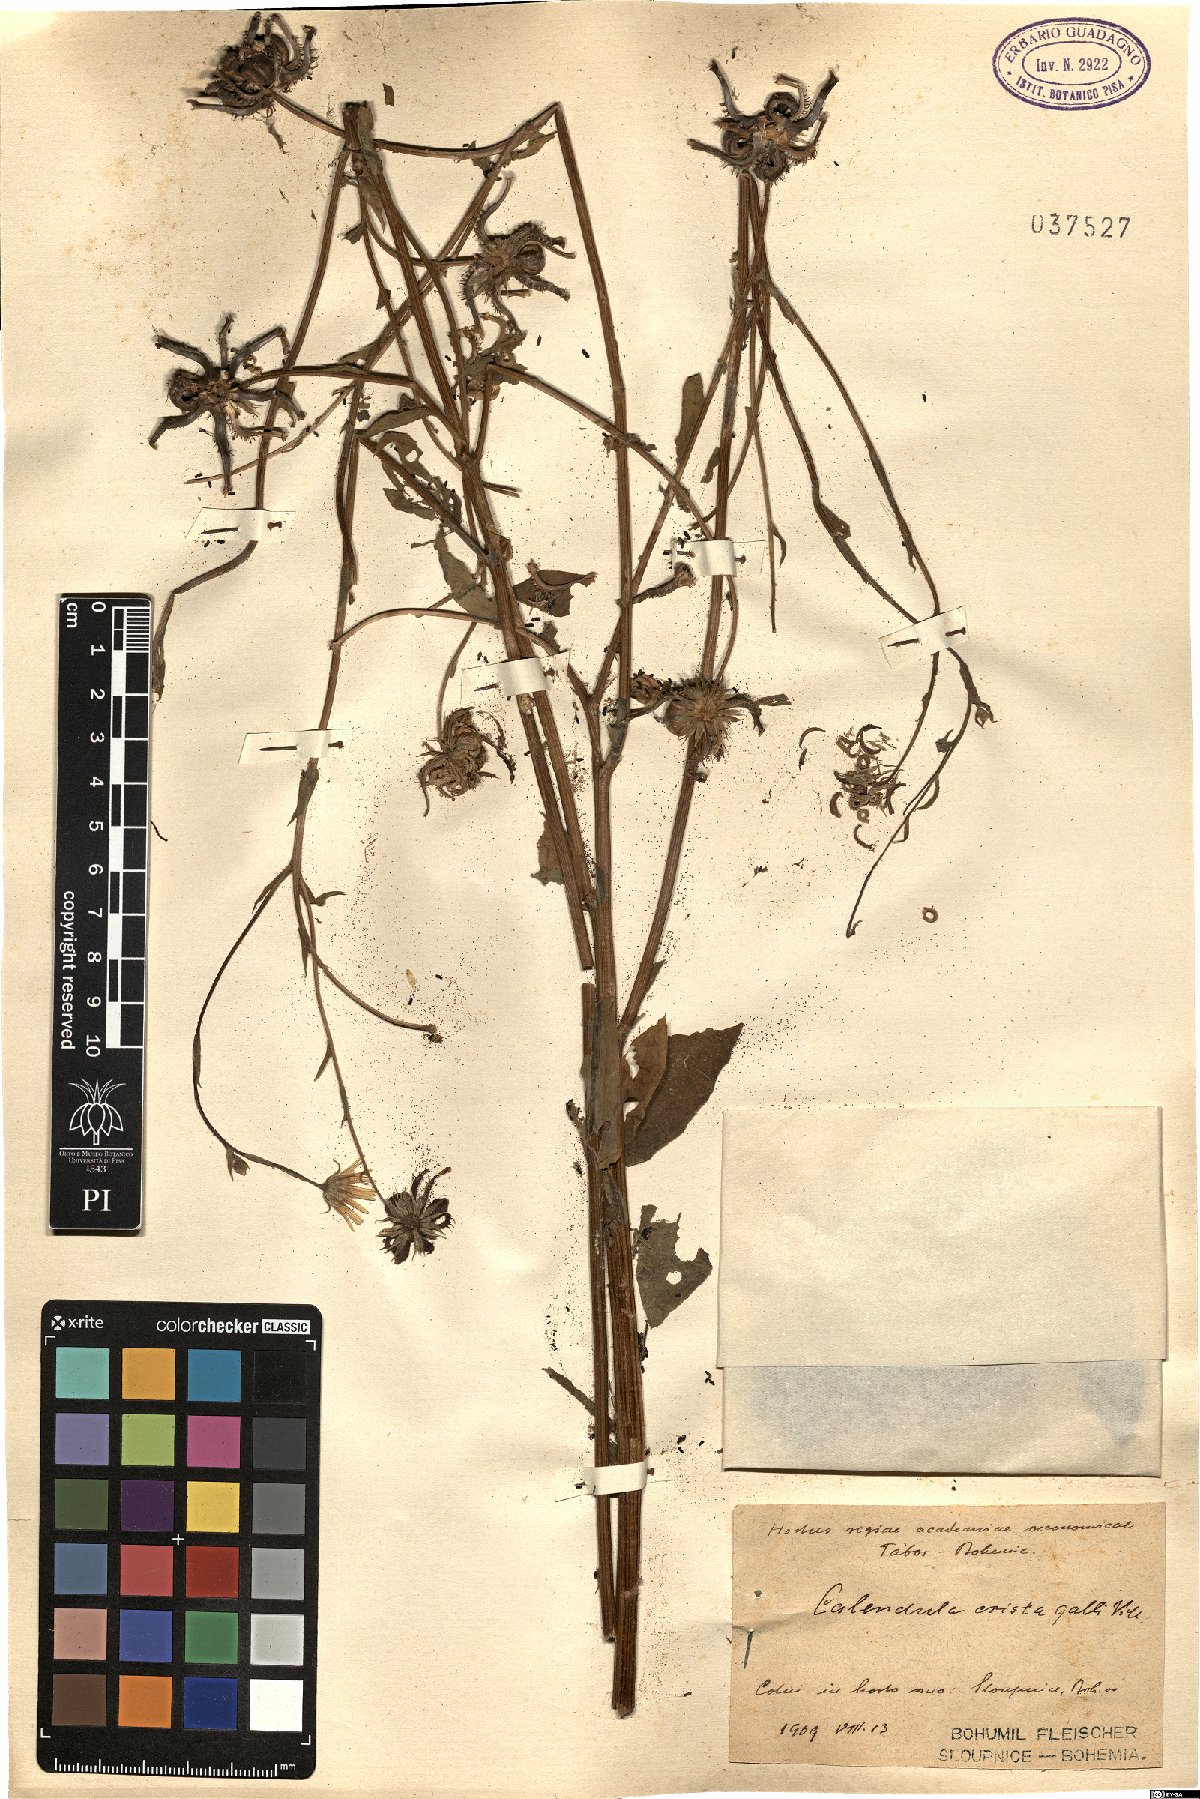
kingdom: Plantae
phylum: Tracheophyta
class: Magnoliopsida
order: Asterales
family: Asteraceae
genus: Calendula
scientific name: Calendula arvensis
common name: Field marigold
